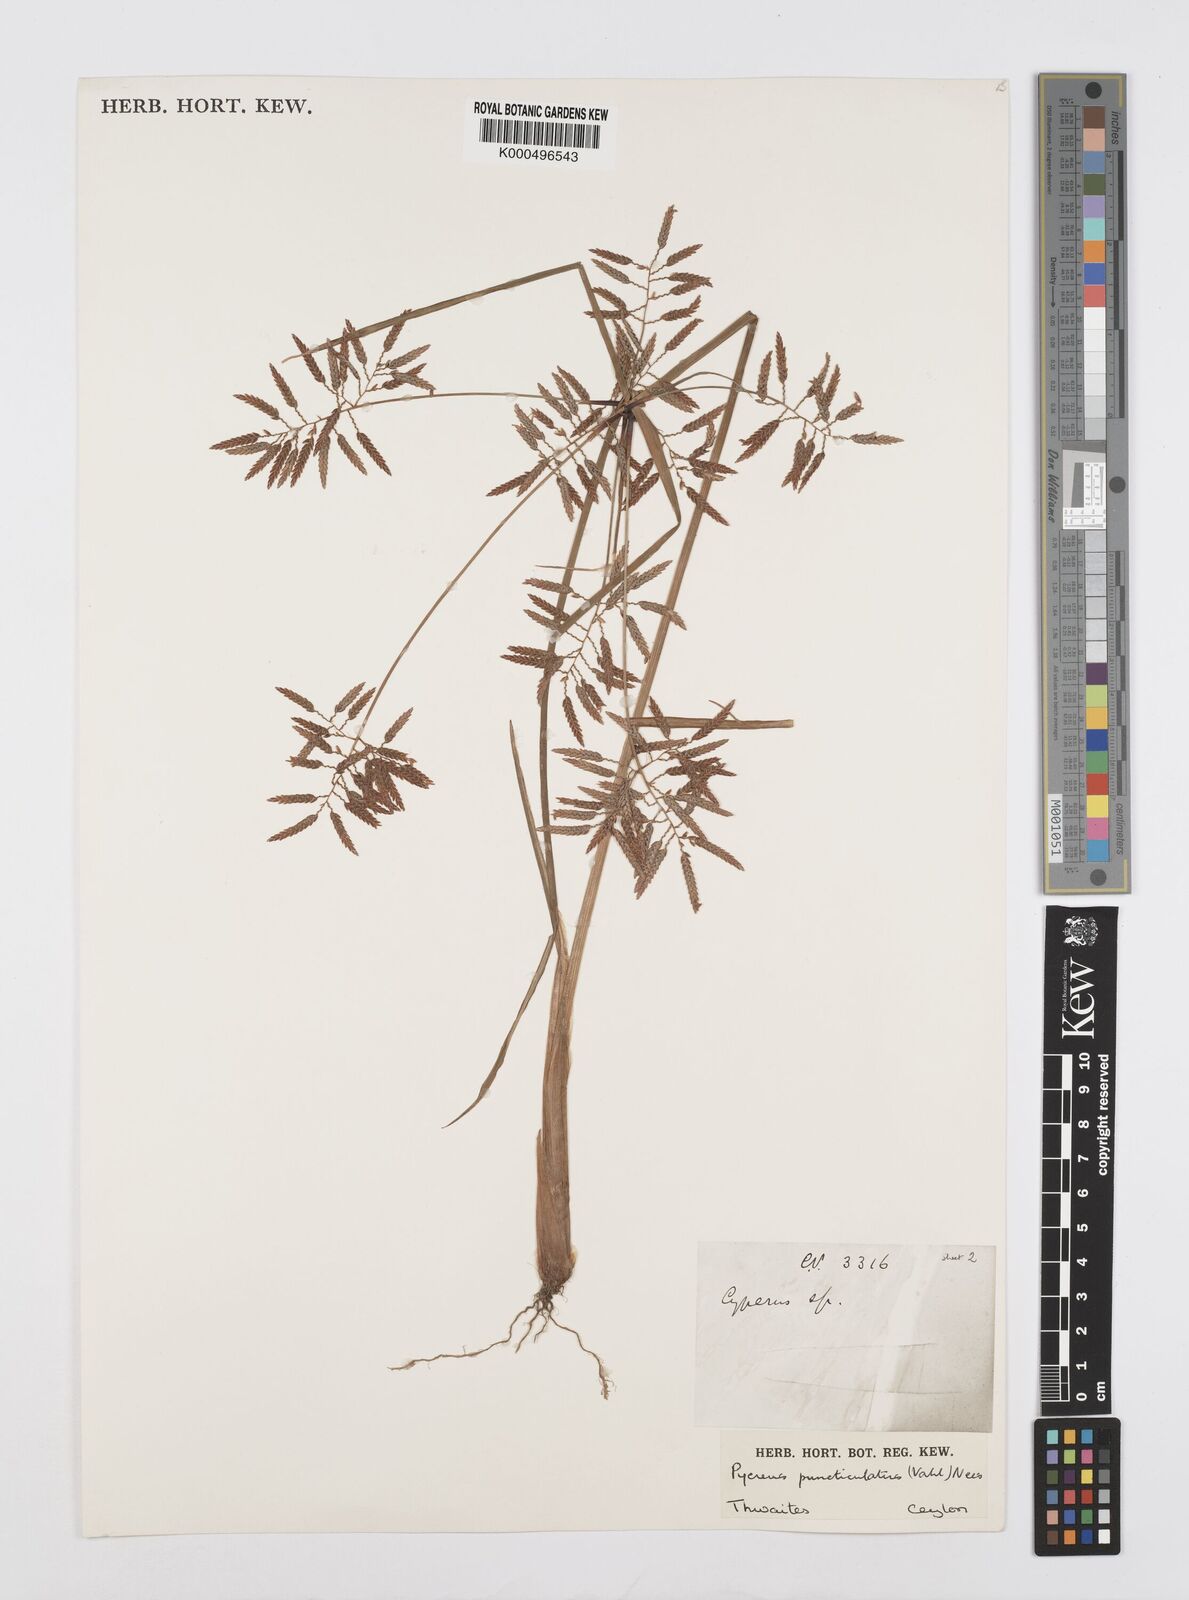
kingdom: Plantae
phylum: Tracheophyta
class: Liliopsida
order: Poales
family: Cyperaceae
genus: Cyperus
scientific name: Cyperus puncticulatus
